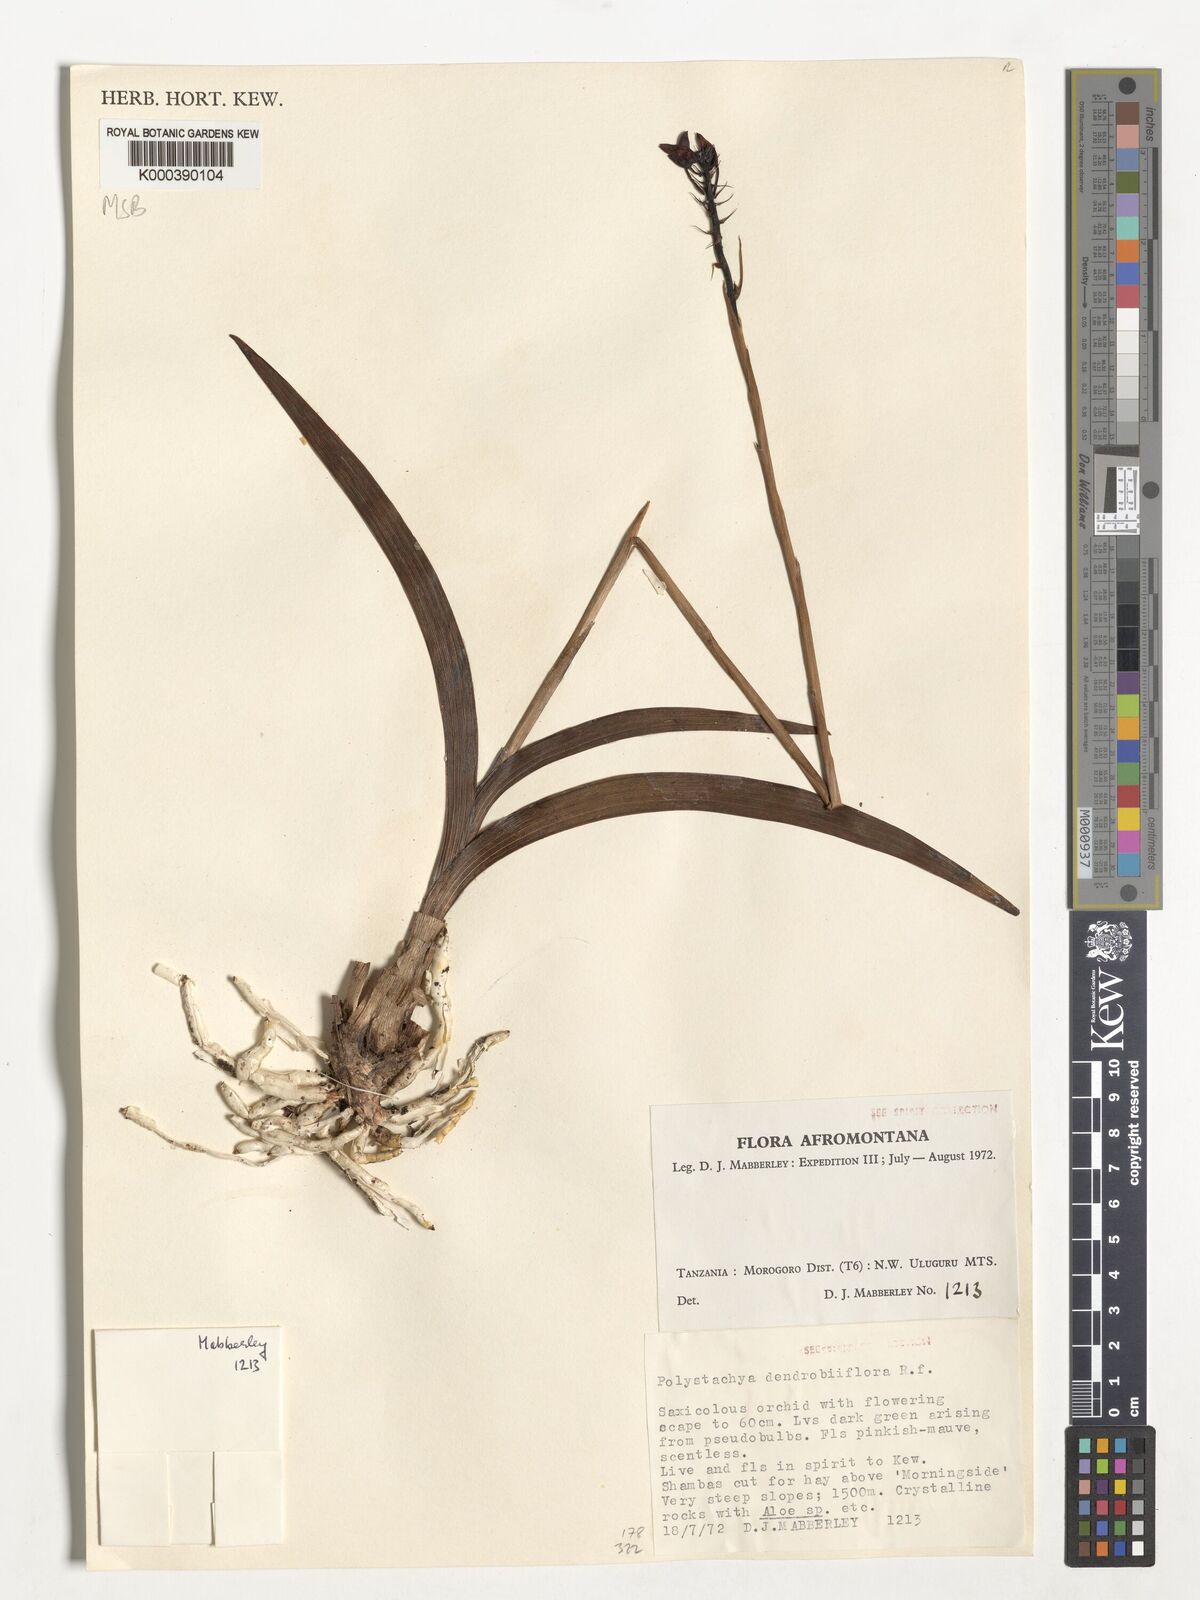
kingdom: Plantae
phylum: Tracheophyta
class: Liliopsida
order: Asparagales
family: Orchidaceae
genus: Polystachya
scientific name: Polystachya longiscapa
